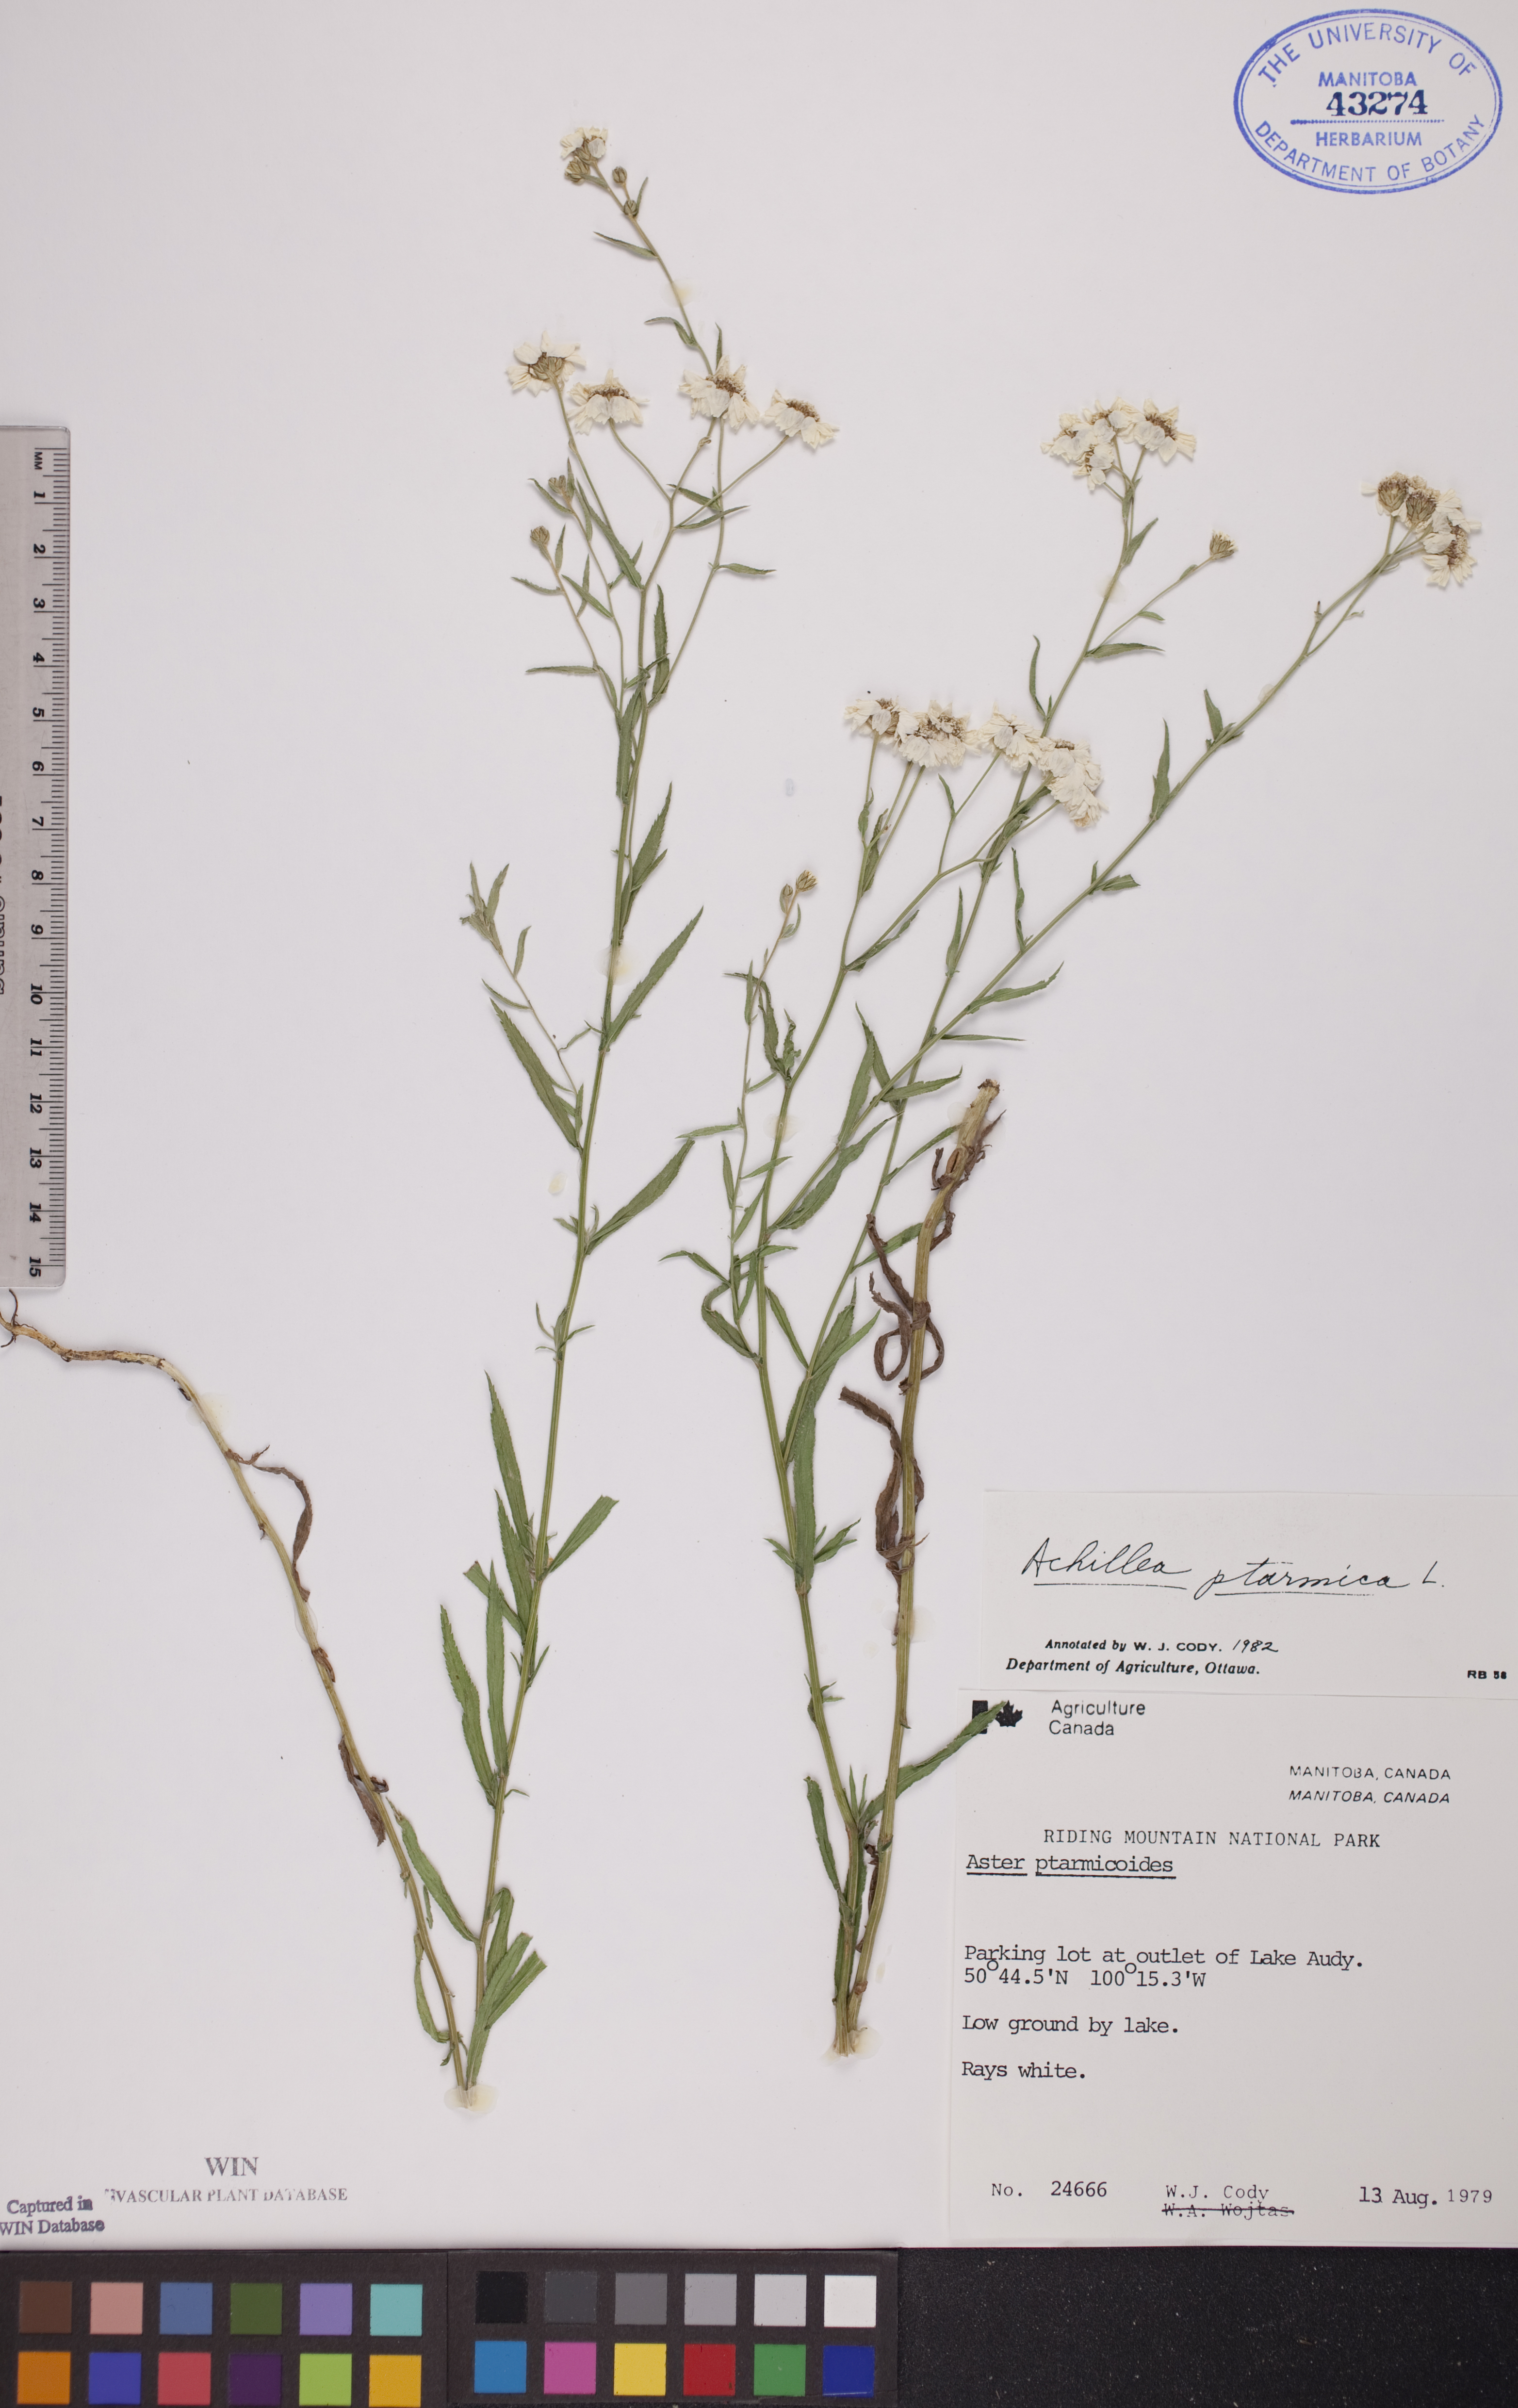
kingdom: Plantae
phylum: Tracheophyta
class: Magnoliopsida
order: Asterales
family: Asteraceae
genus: Achillea
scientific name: Achillea ptarmica
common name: Sneezeweed
